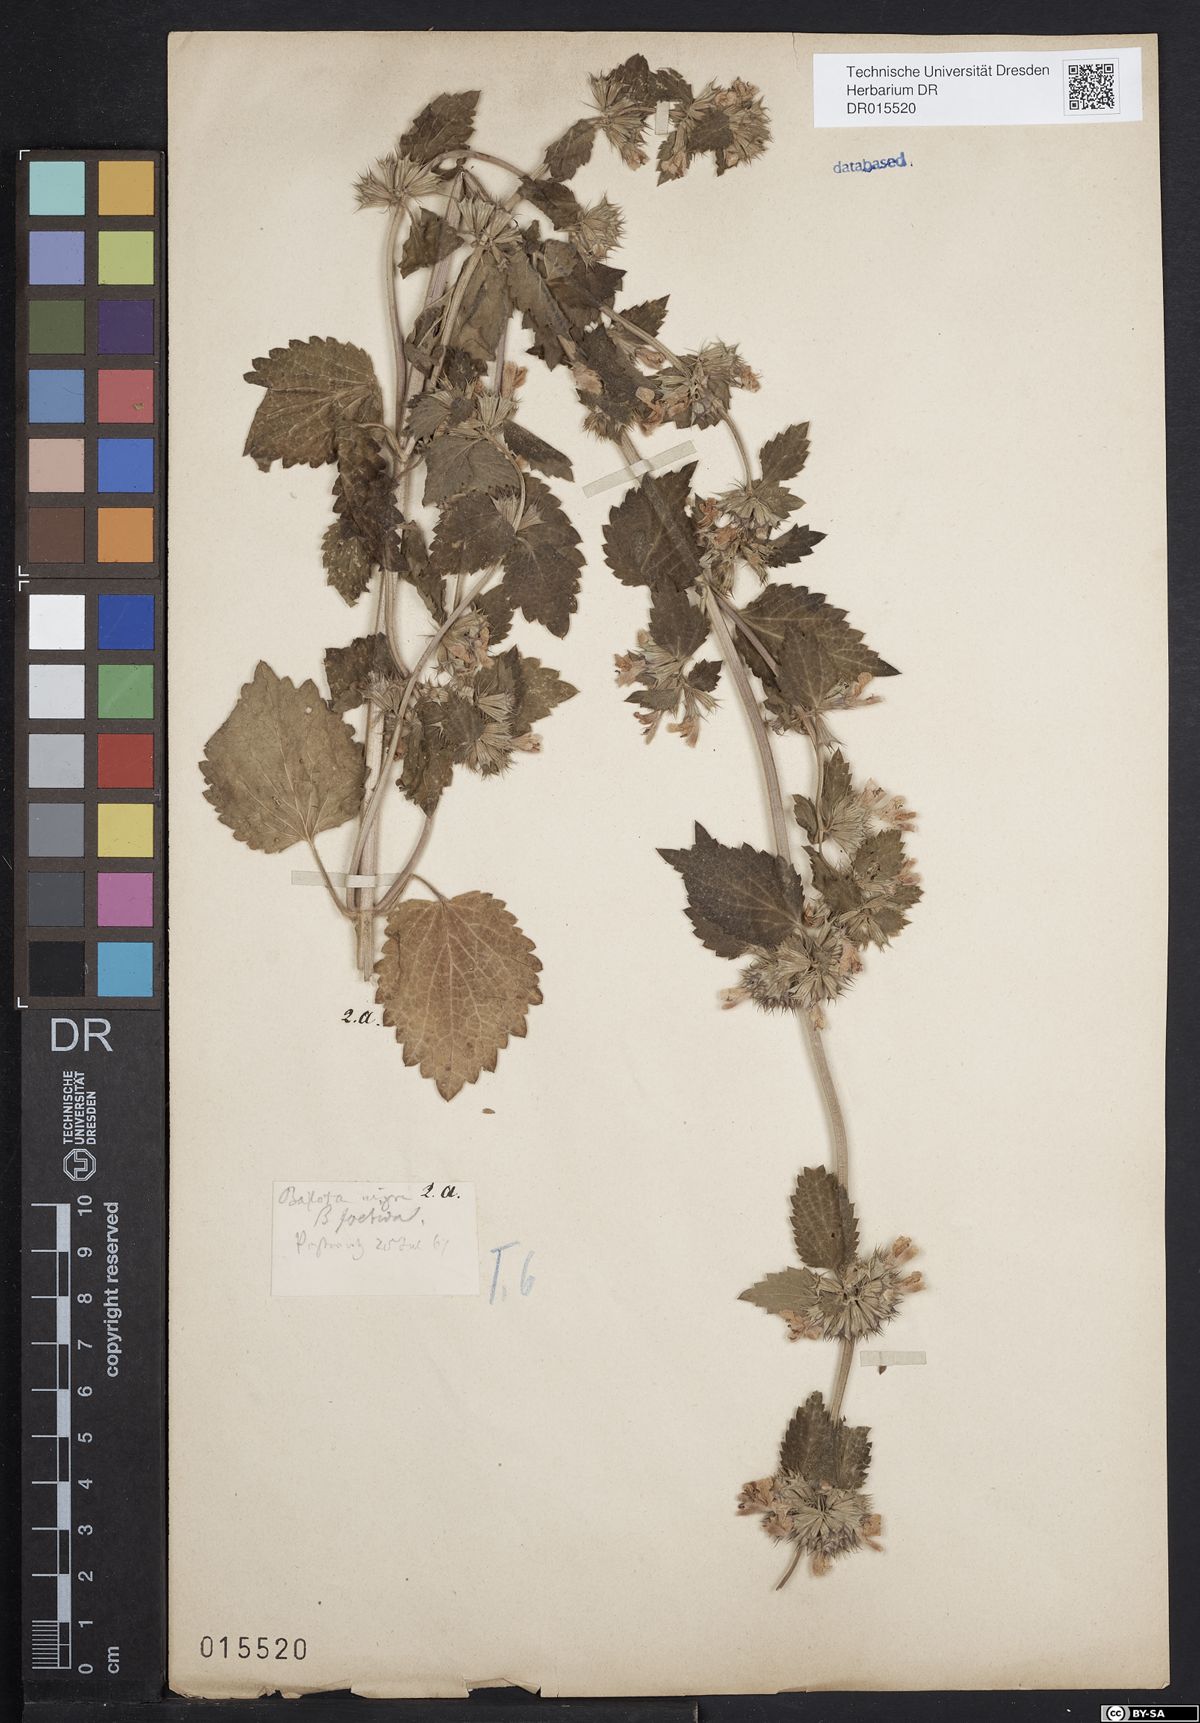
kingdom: Plantae
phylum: Tracheophyta
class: Magnoliopsida
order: Lamiales
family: Lamiaceae
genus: Ballota
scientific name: Ballota nigra
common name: Black horehound
